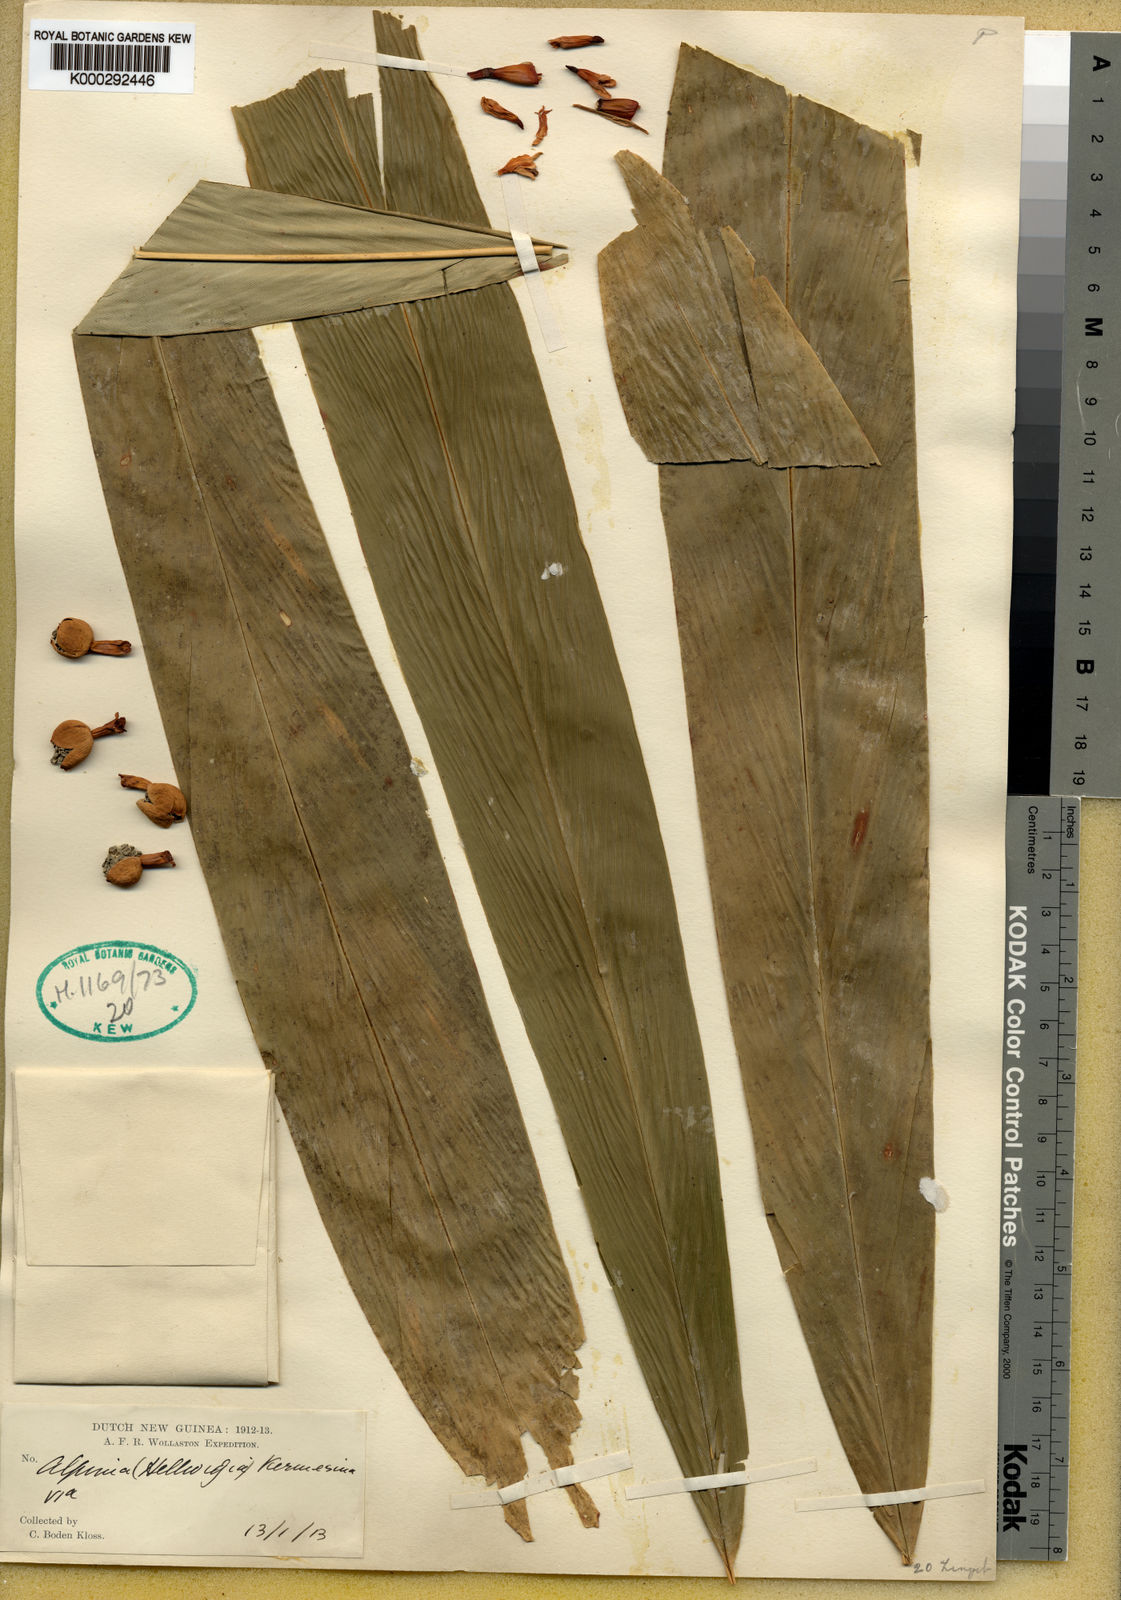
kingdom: Plantae
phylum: Tracheophyta
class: Liliopsida
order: Zingiberales
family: Zingiberaceae
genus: Alpinia
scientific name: Alpinia divaricata
